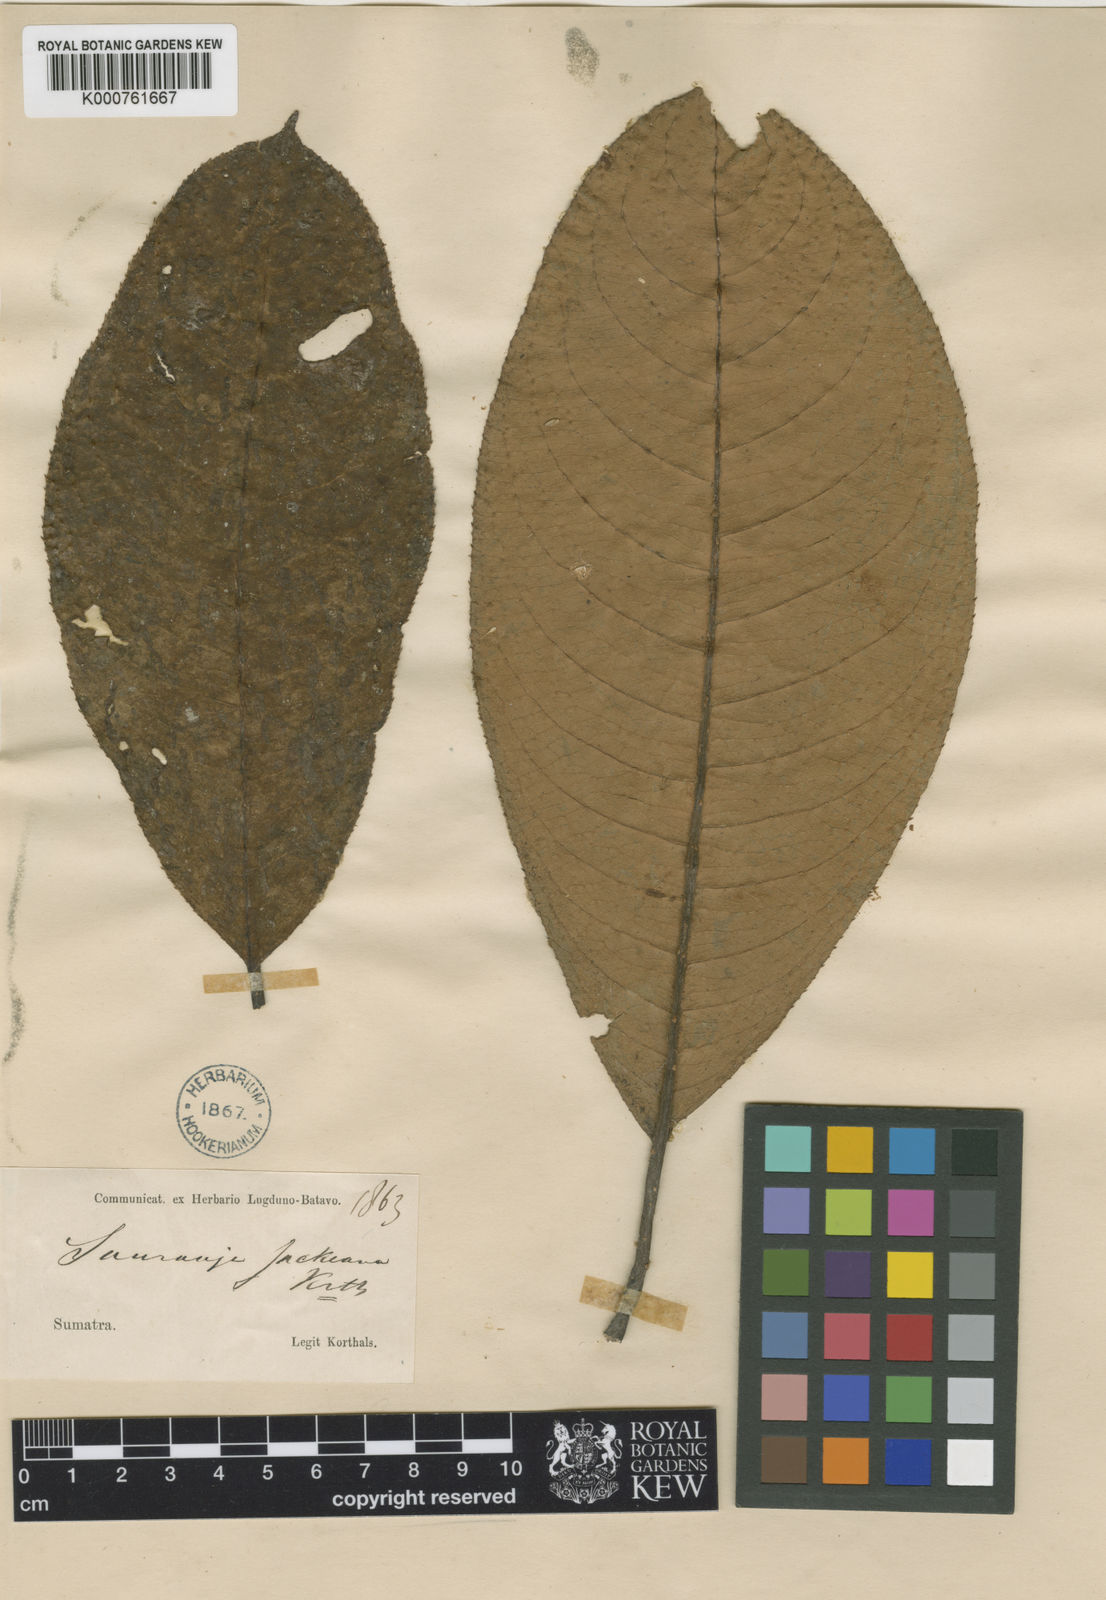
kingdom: Plantae
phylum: Tracheophyta
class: Magnoliopsida
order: Ericales
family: Actinidiaceae
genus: Saurauia
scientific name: Saurauia cauliflora
